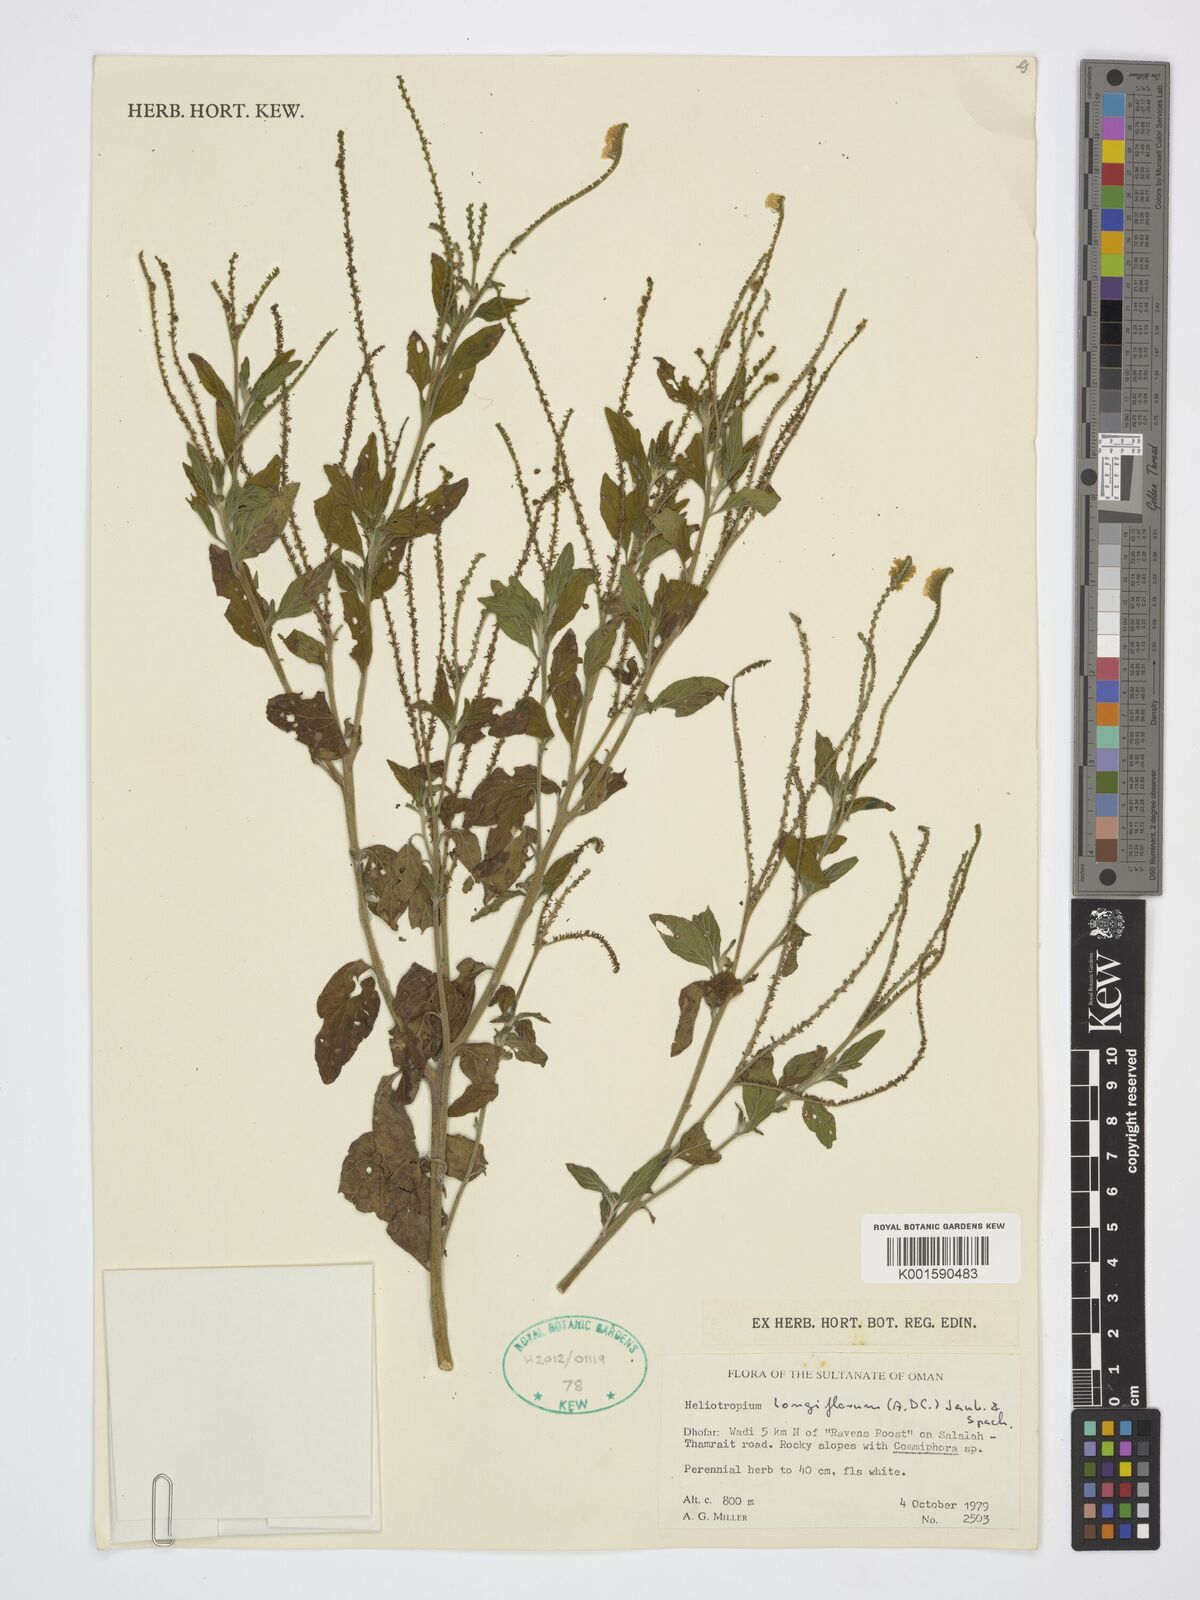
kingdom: Plantae
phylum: Tracheophyta
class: Magnoliopsida
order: Boraginales
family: Heliotropiaceae
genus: Heliotropium
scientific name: Heliotropium longiflorum
